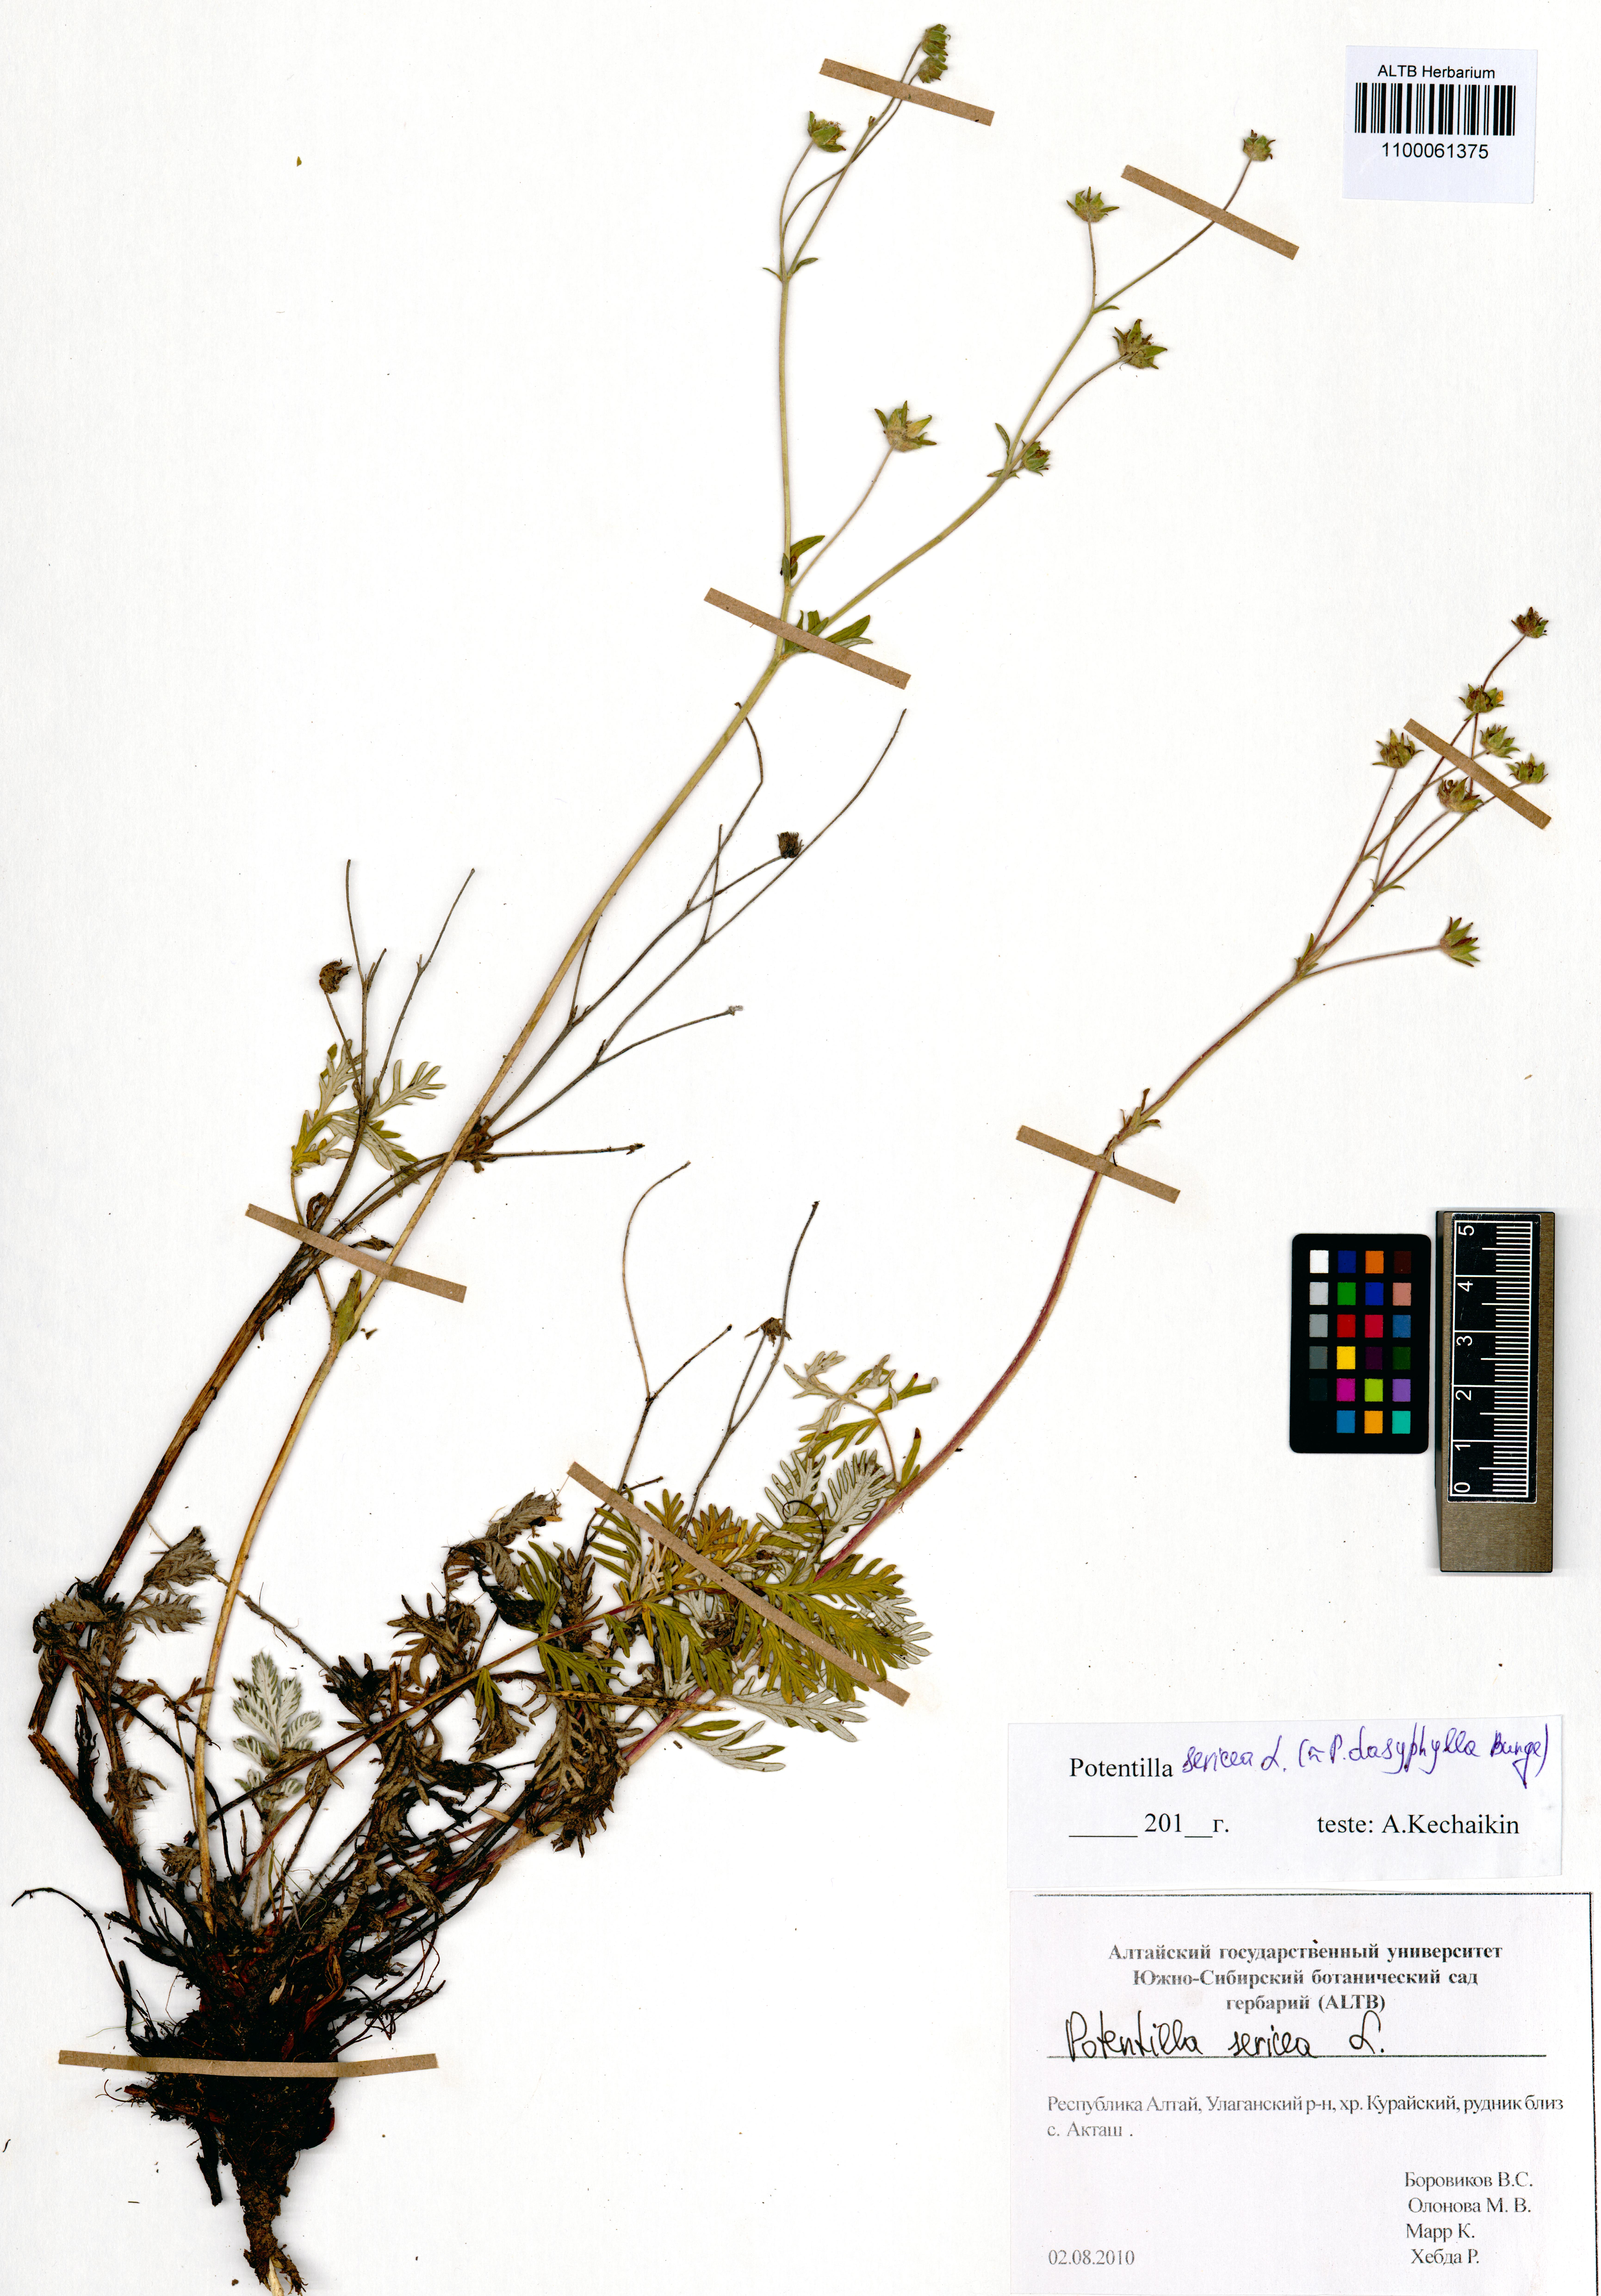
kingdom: Plantae
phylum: Tracheophyta
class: Magnoliopsida
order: Rosales
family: Rosaceae
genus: Potentilla
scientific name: Potentilla sericea
